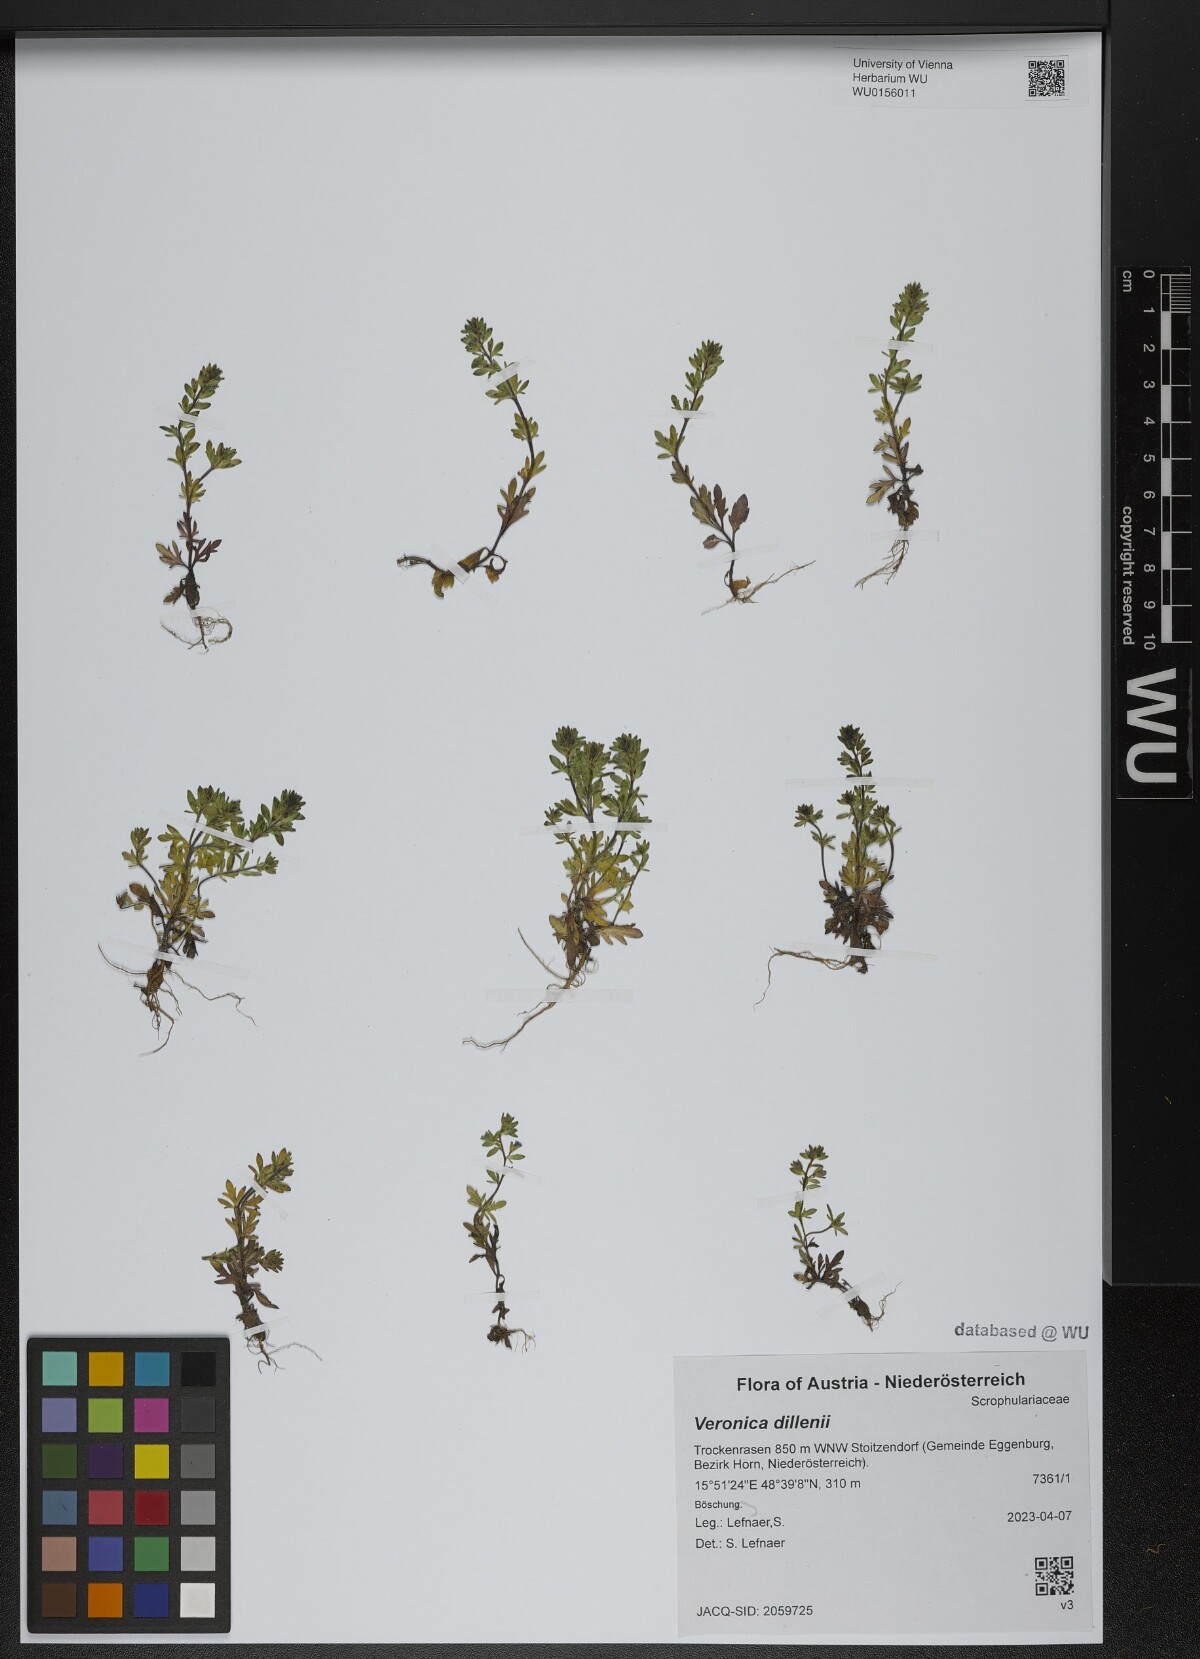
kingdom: Plantae
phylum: Tracheophyta
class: Magnoliopsida
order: Lamiales
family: Plantaginaceae
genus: Veronica
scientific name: Veronica dillenii
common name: Dillenius' speedwell
